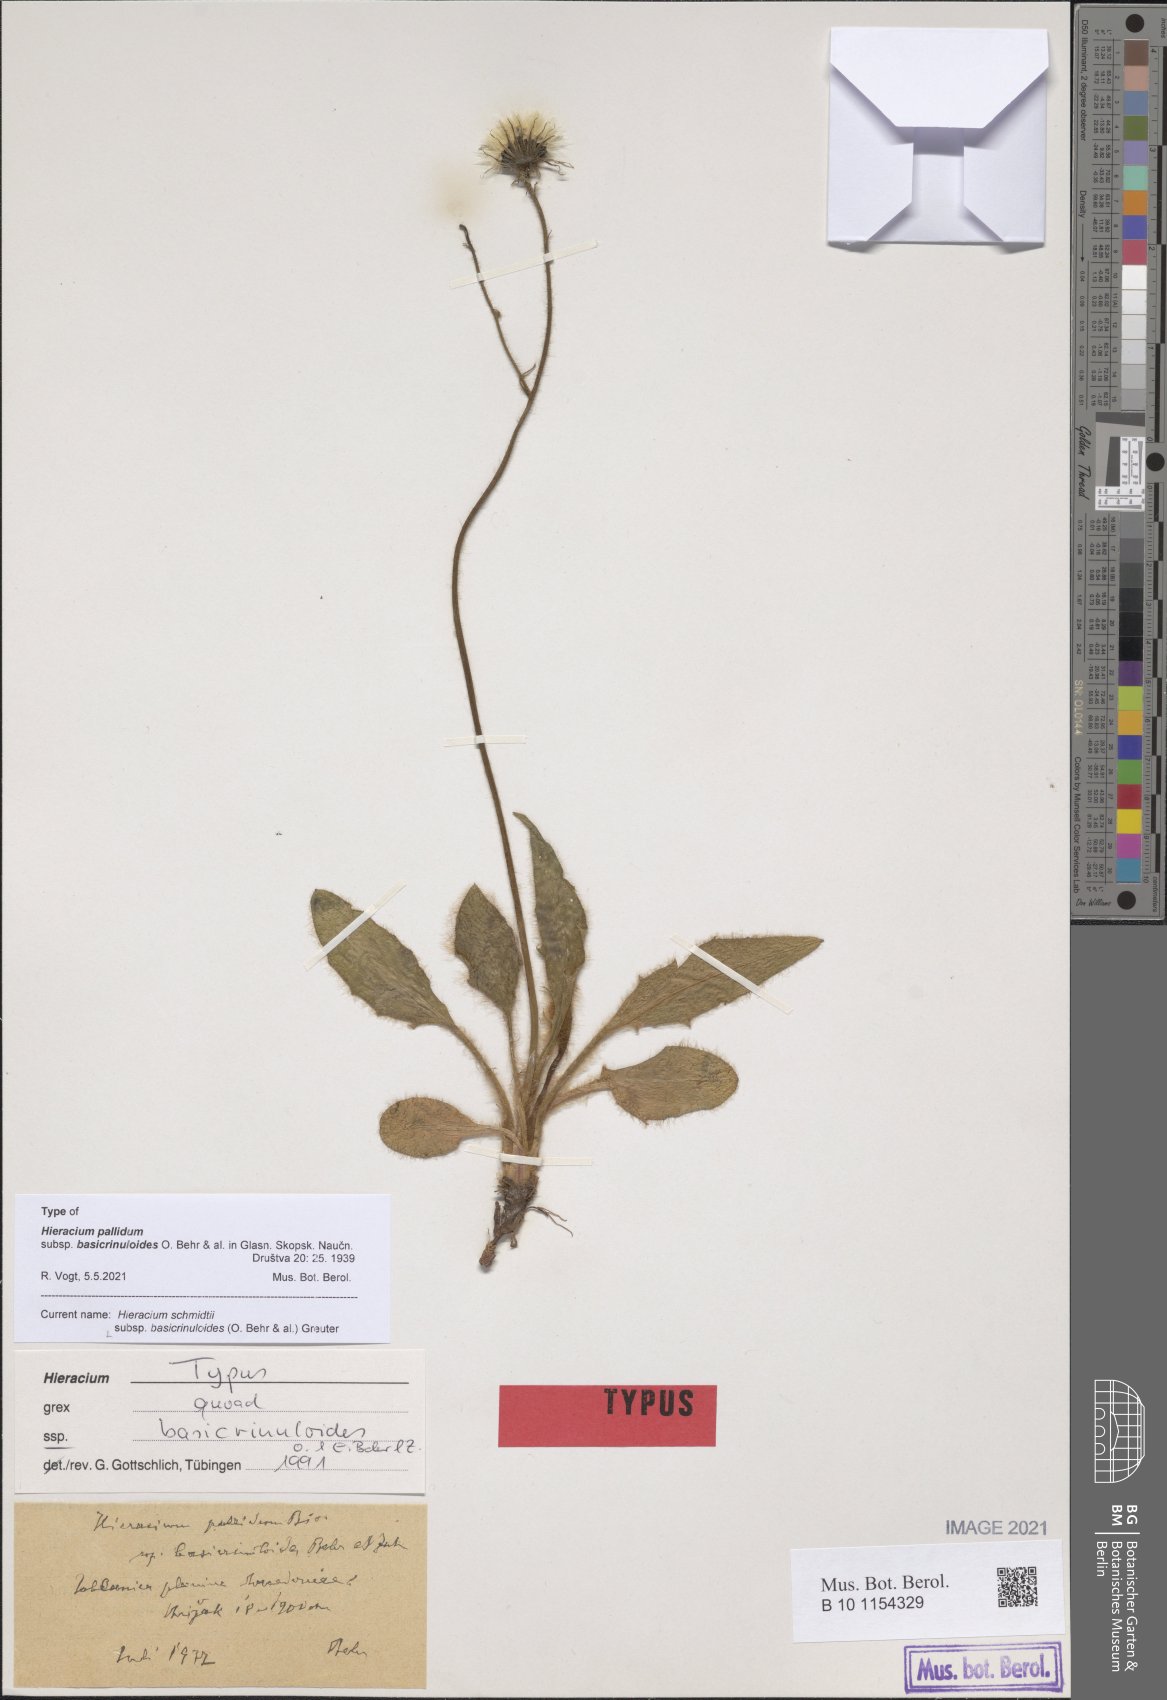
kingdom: Plantae
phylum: Tracheophyta
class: Magnoliopsida
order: Asterales
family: Asteraceae
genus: Hieracium
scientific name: Hieracium schmidtii
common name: Schmidt's hawkweed
